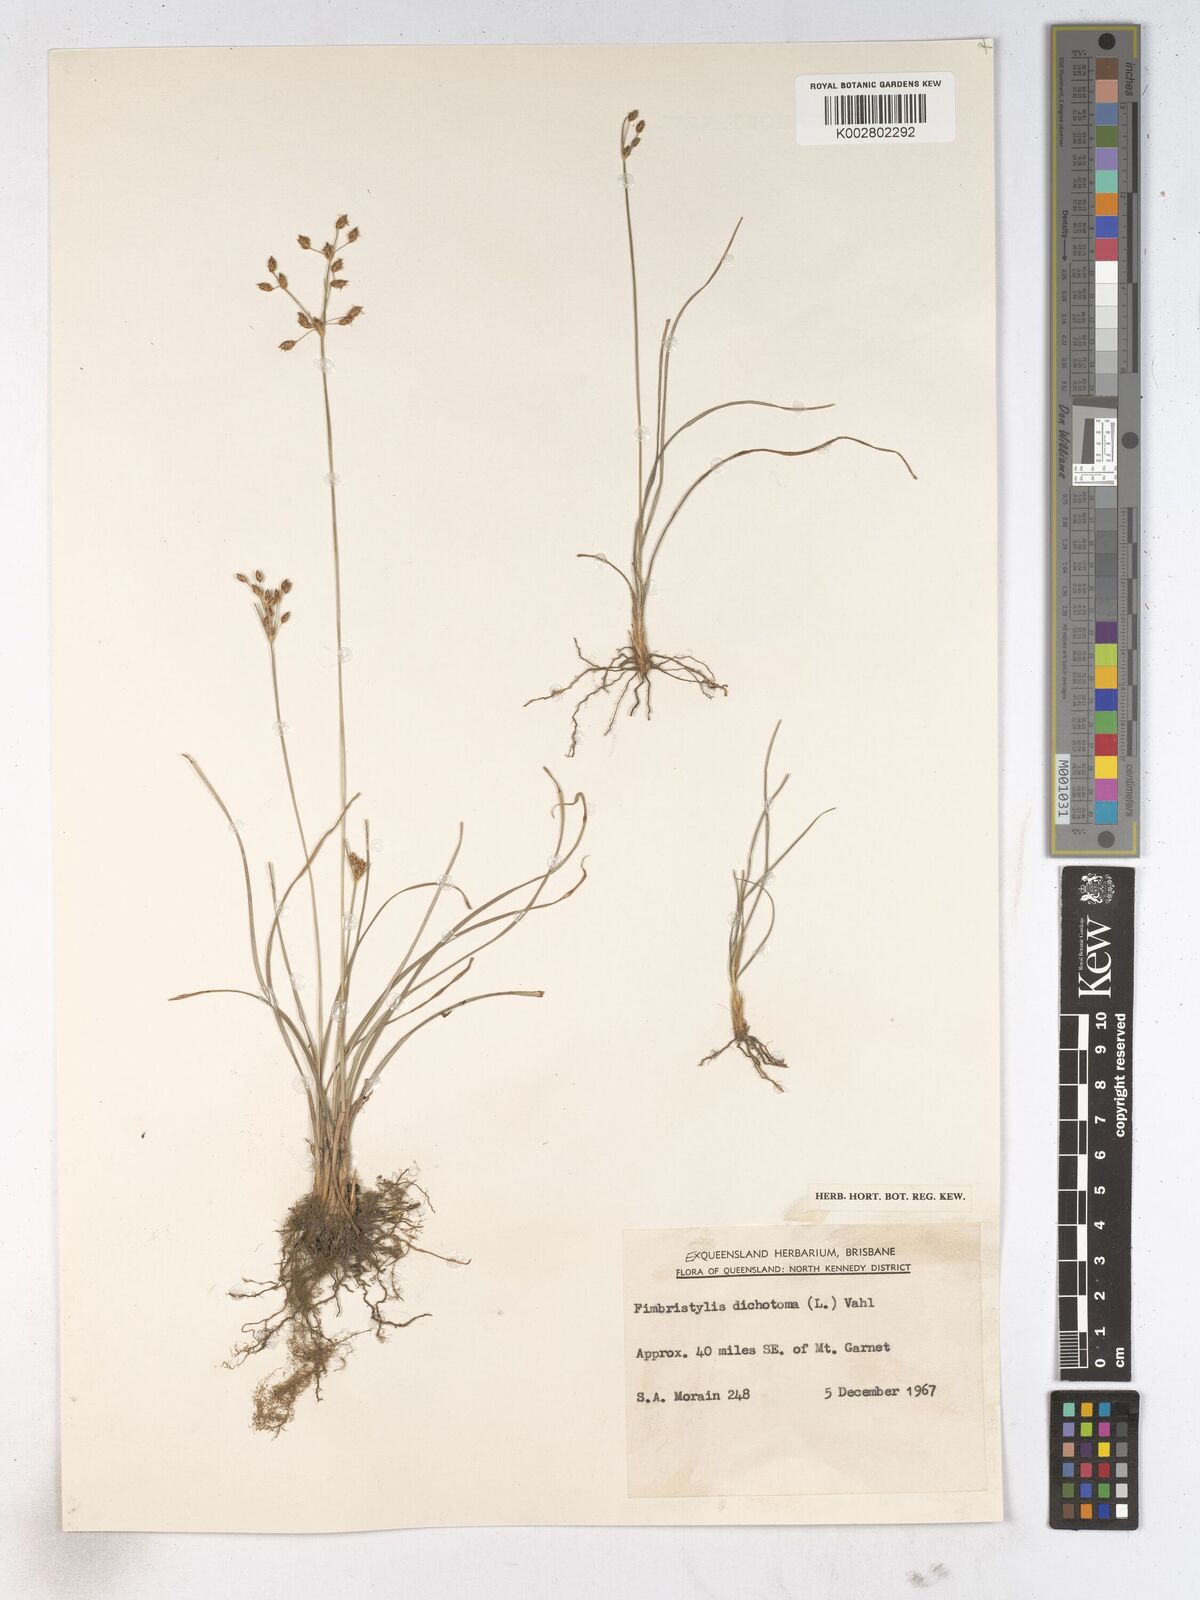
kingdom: Plantae
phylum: Tracheophyta
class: Liliopsida
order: Poales
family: Cyperaceae
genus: Fimbristylis
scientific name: Fimbristylis dichotoma
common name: Forked fimbry
